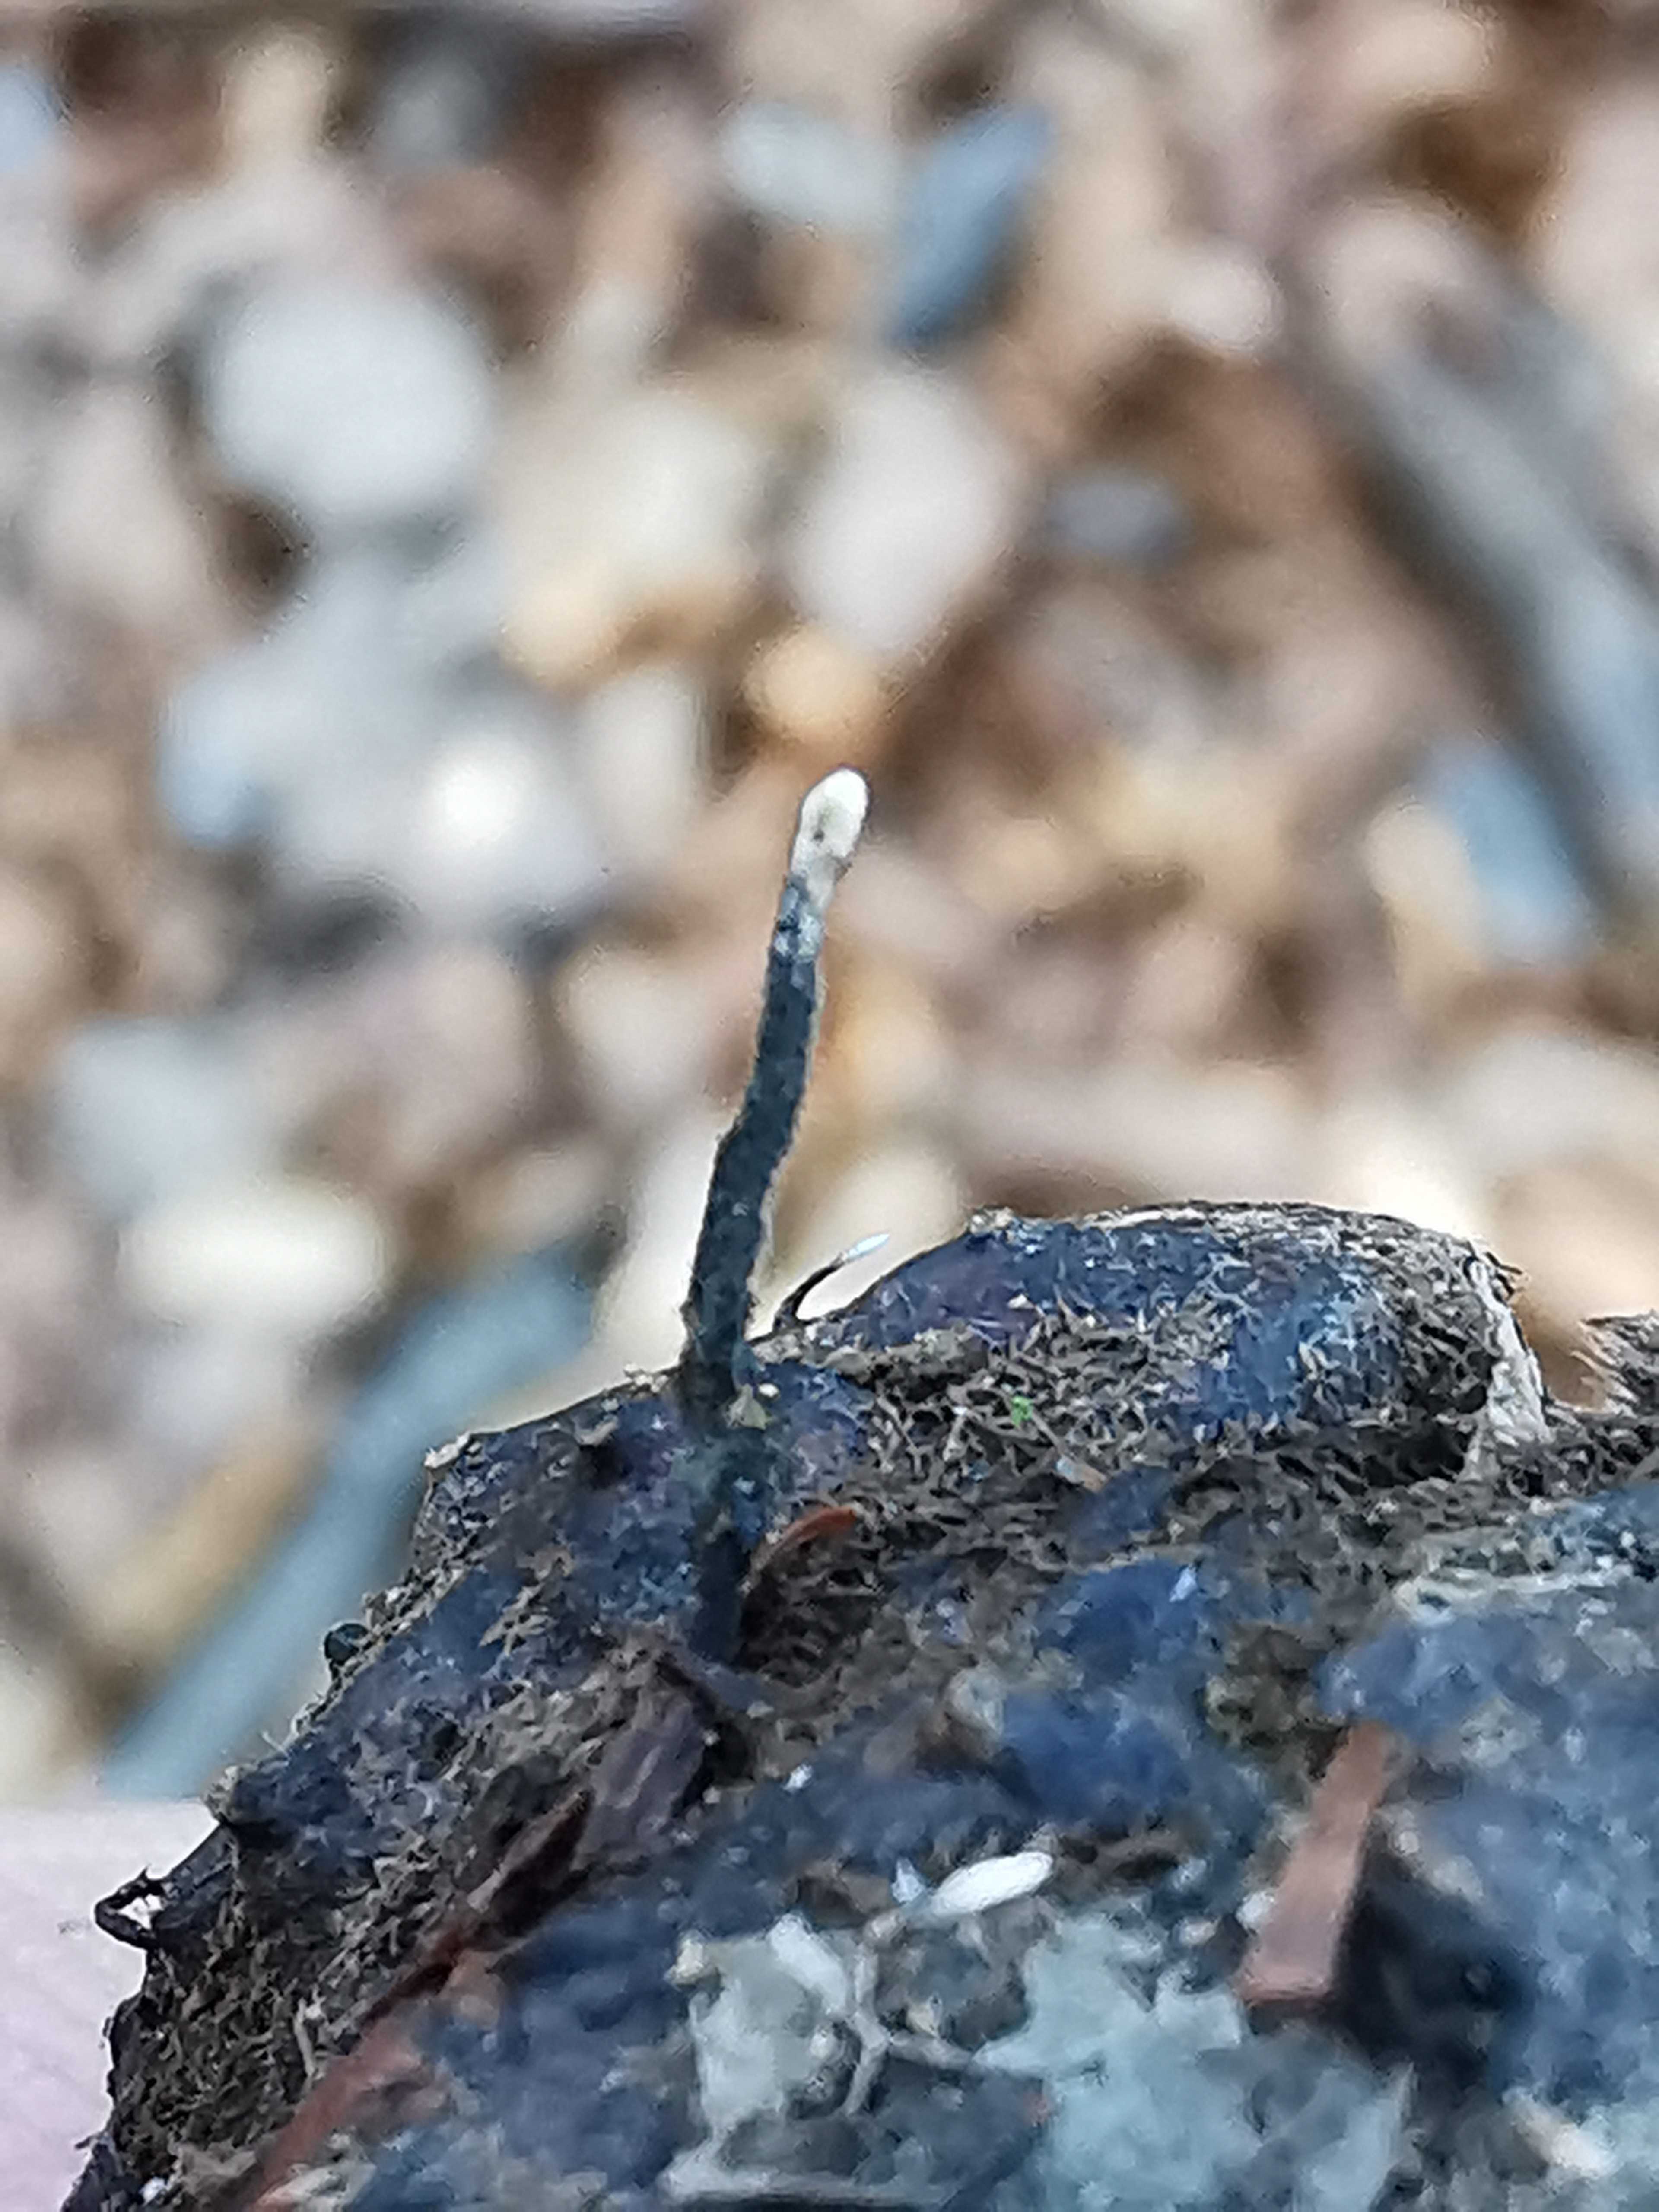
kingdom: Fungi
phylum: Ascomycota
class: Sordariomycetes
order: Xylariales
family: Xylariaceae
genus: Xylaria
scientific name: Xylaria carpophila
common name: bogskål-stødsvamp
